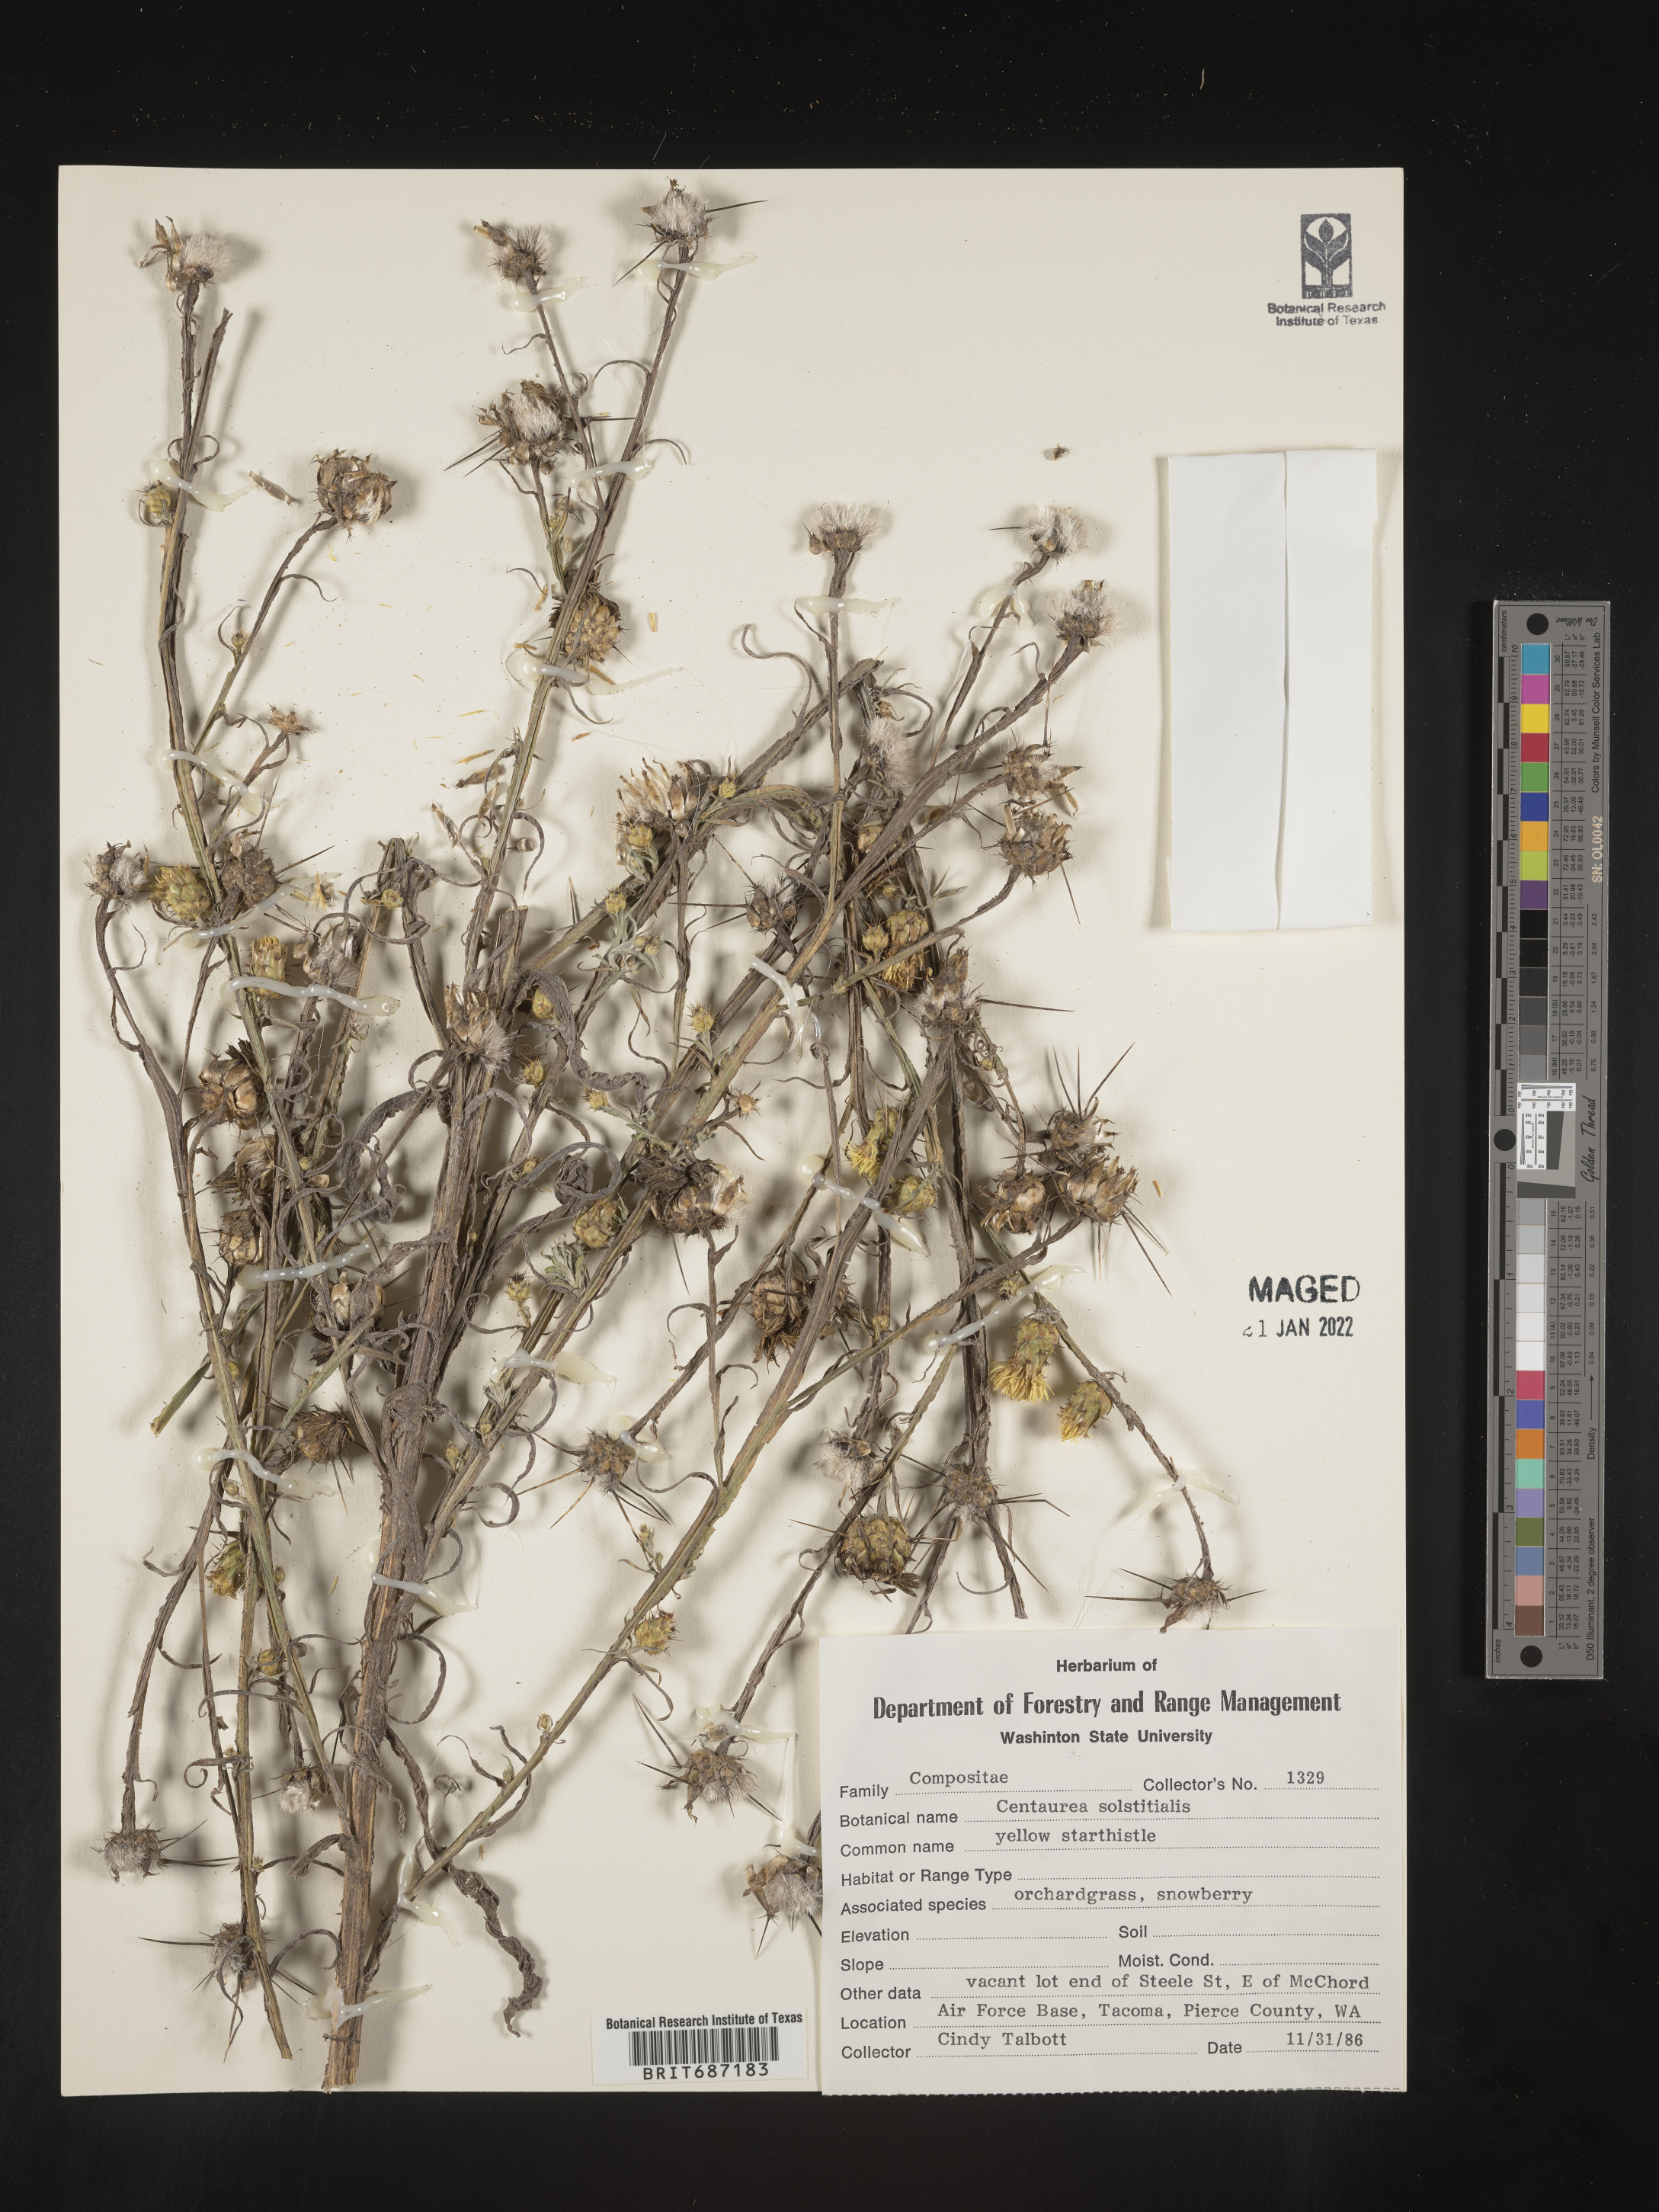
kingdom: Plantae
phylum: Tracheophyta
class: Magnoliopsida
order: Asterales
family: Asteraceae
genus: Centaurea
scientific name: Centaurea solstitialis
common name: Yellow star-thistle
